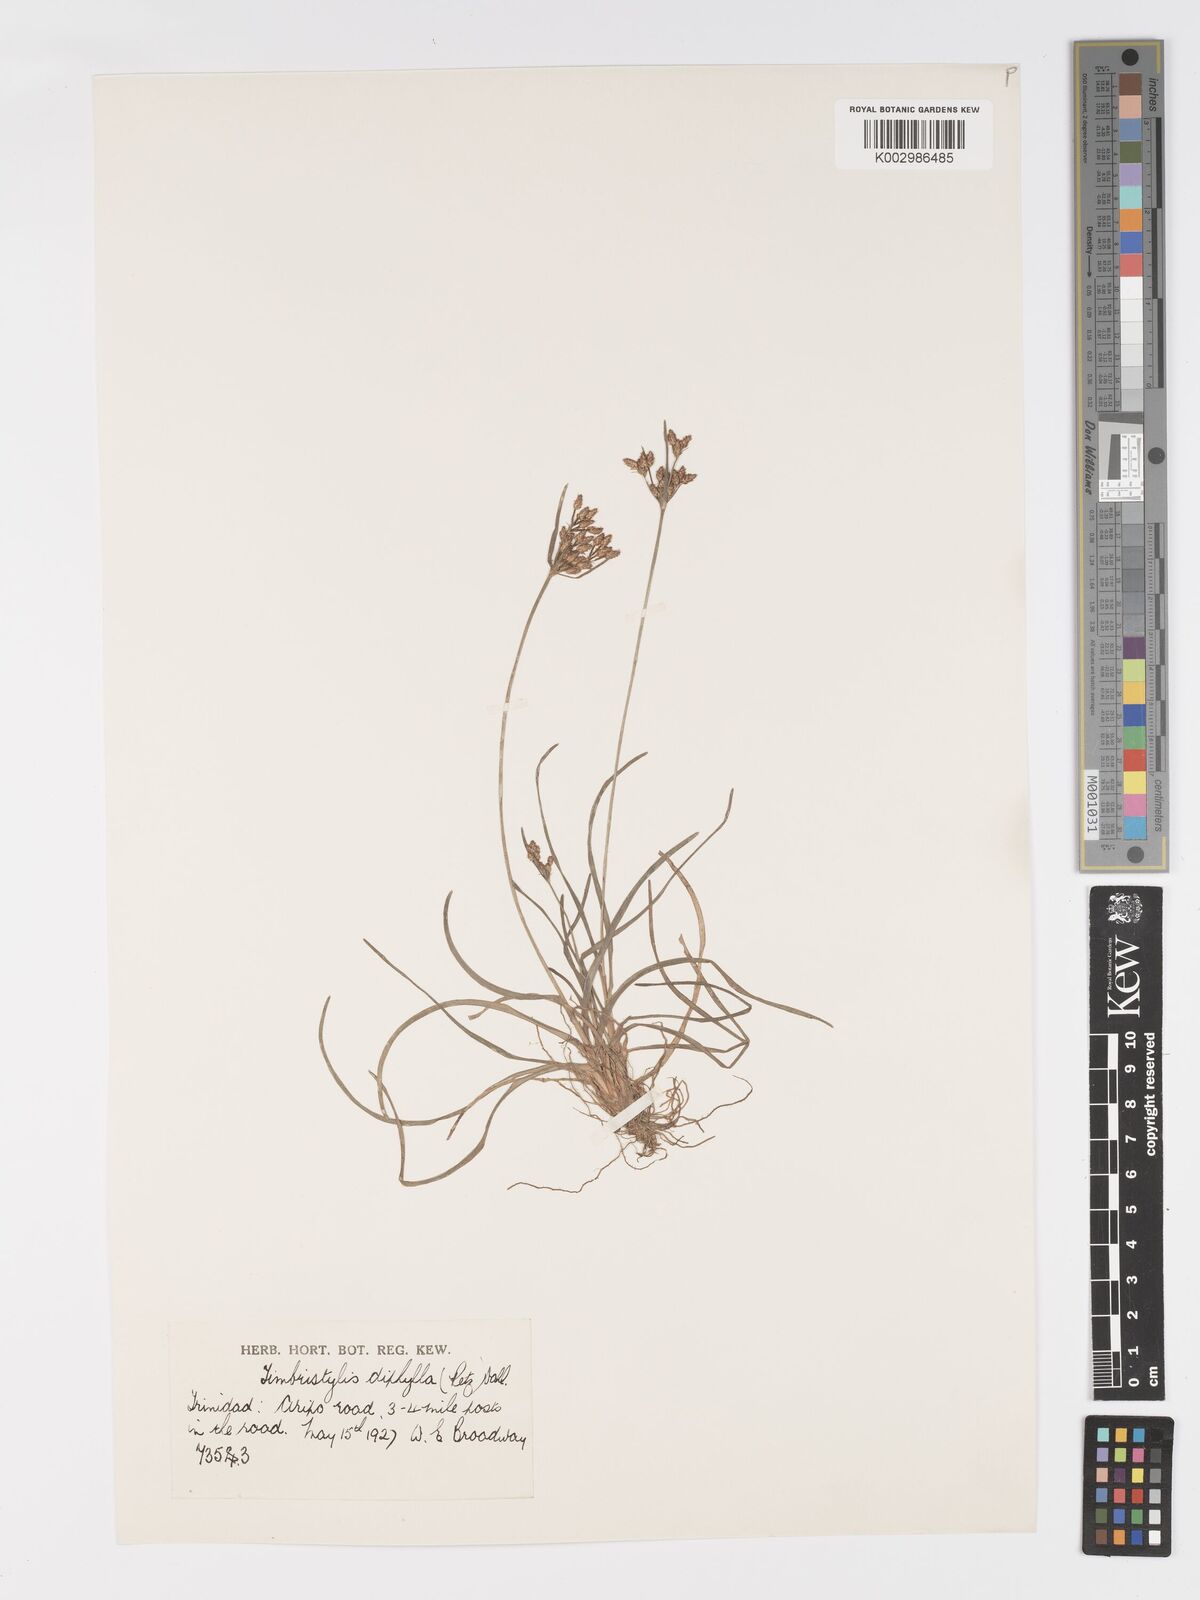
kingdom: Plantae
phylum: Tracheophyta
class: Liliopsida
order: Poales
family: Cyperaceae
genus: Fimbristylis
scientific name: Fimbristylis dichotoma
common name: Forked fimbry
